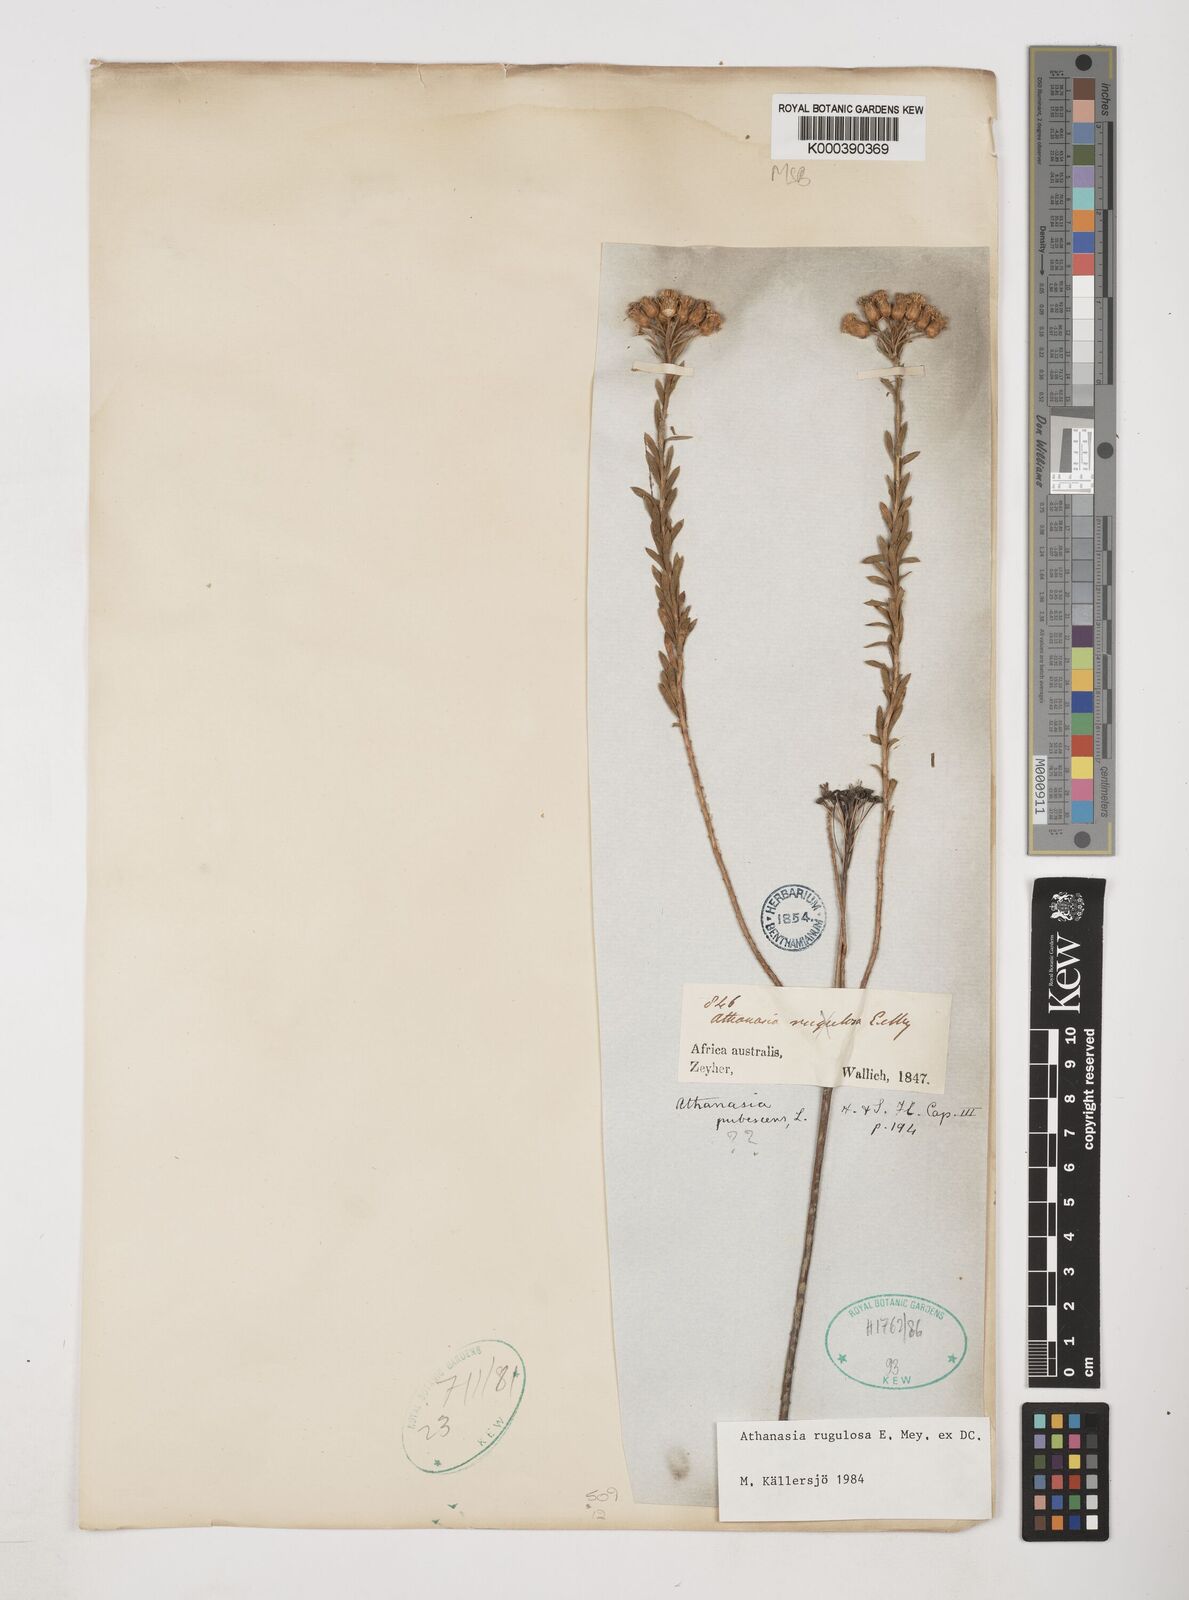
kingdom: Plantae
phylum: Tracheophyta
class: Magnoliopsida
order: Asterales
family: Asteraceae
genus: Athanasia
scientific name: Athanasia rugulosa
